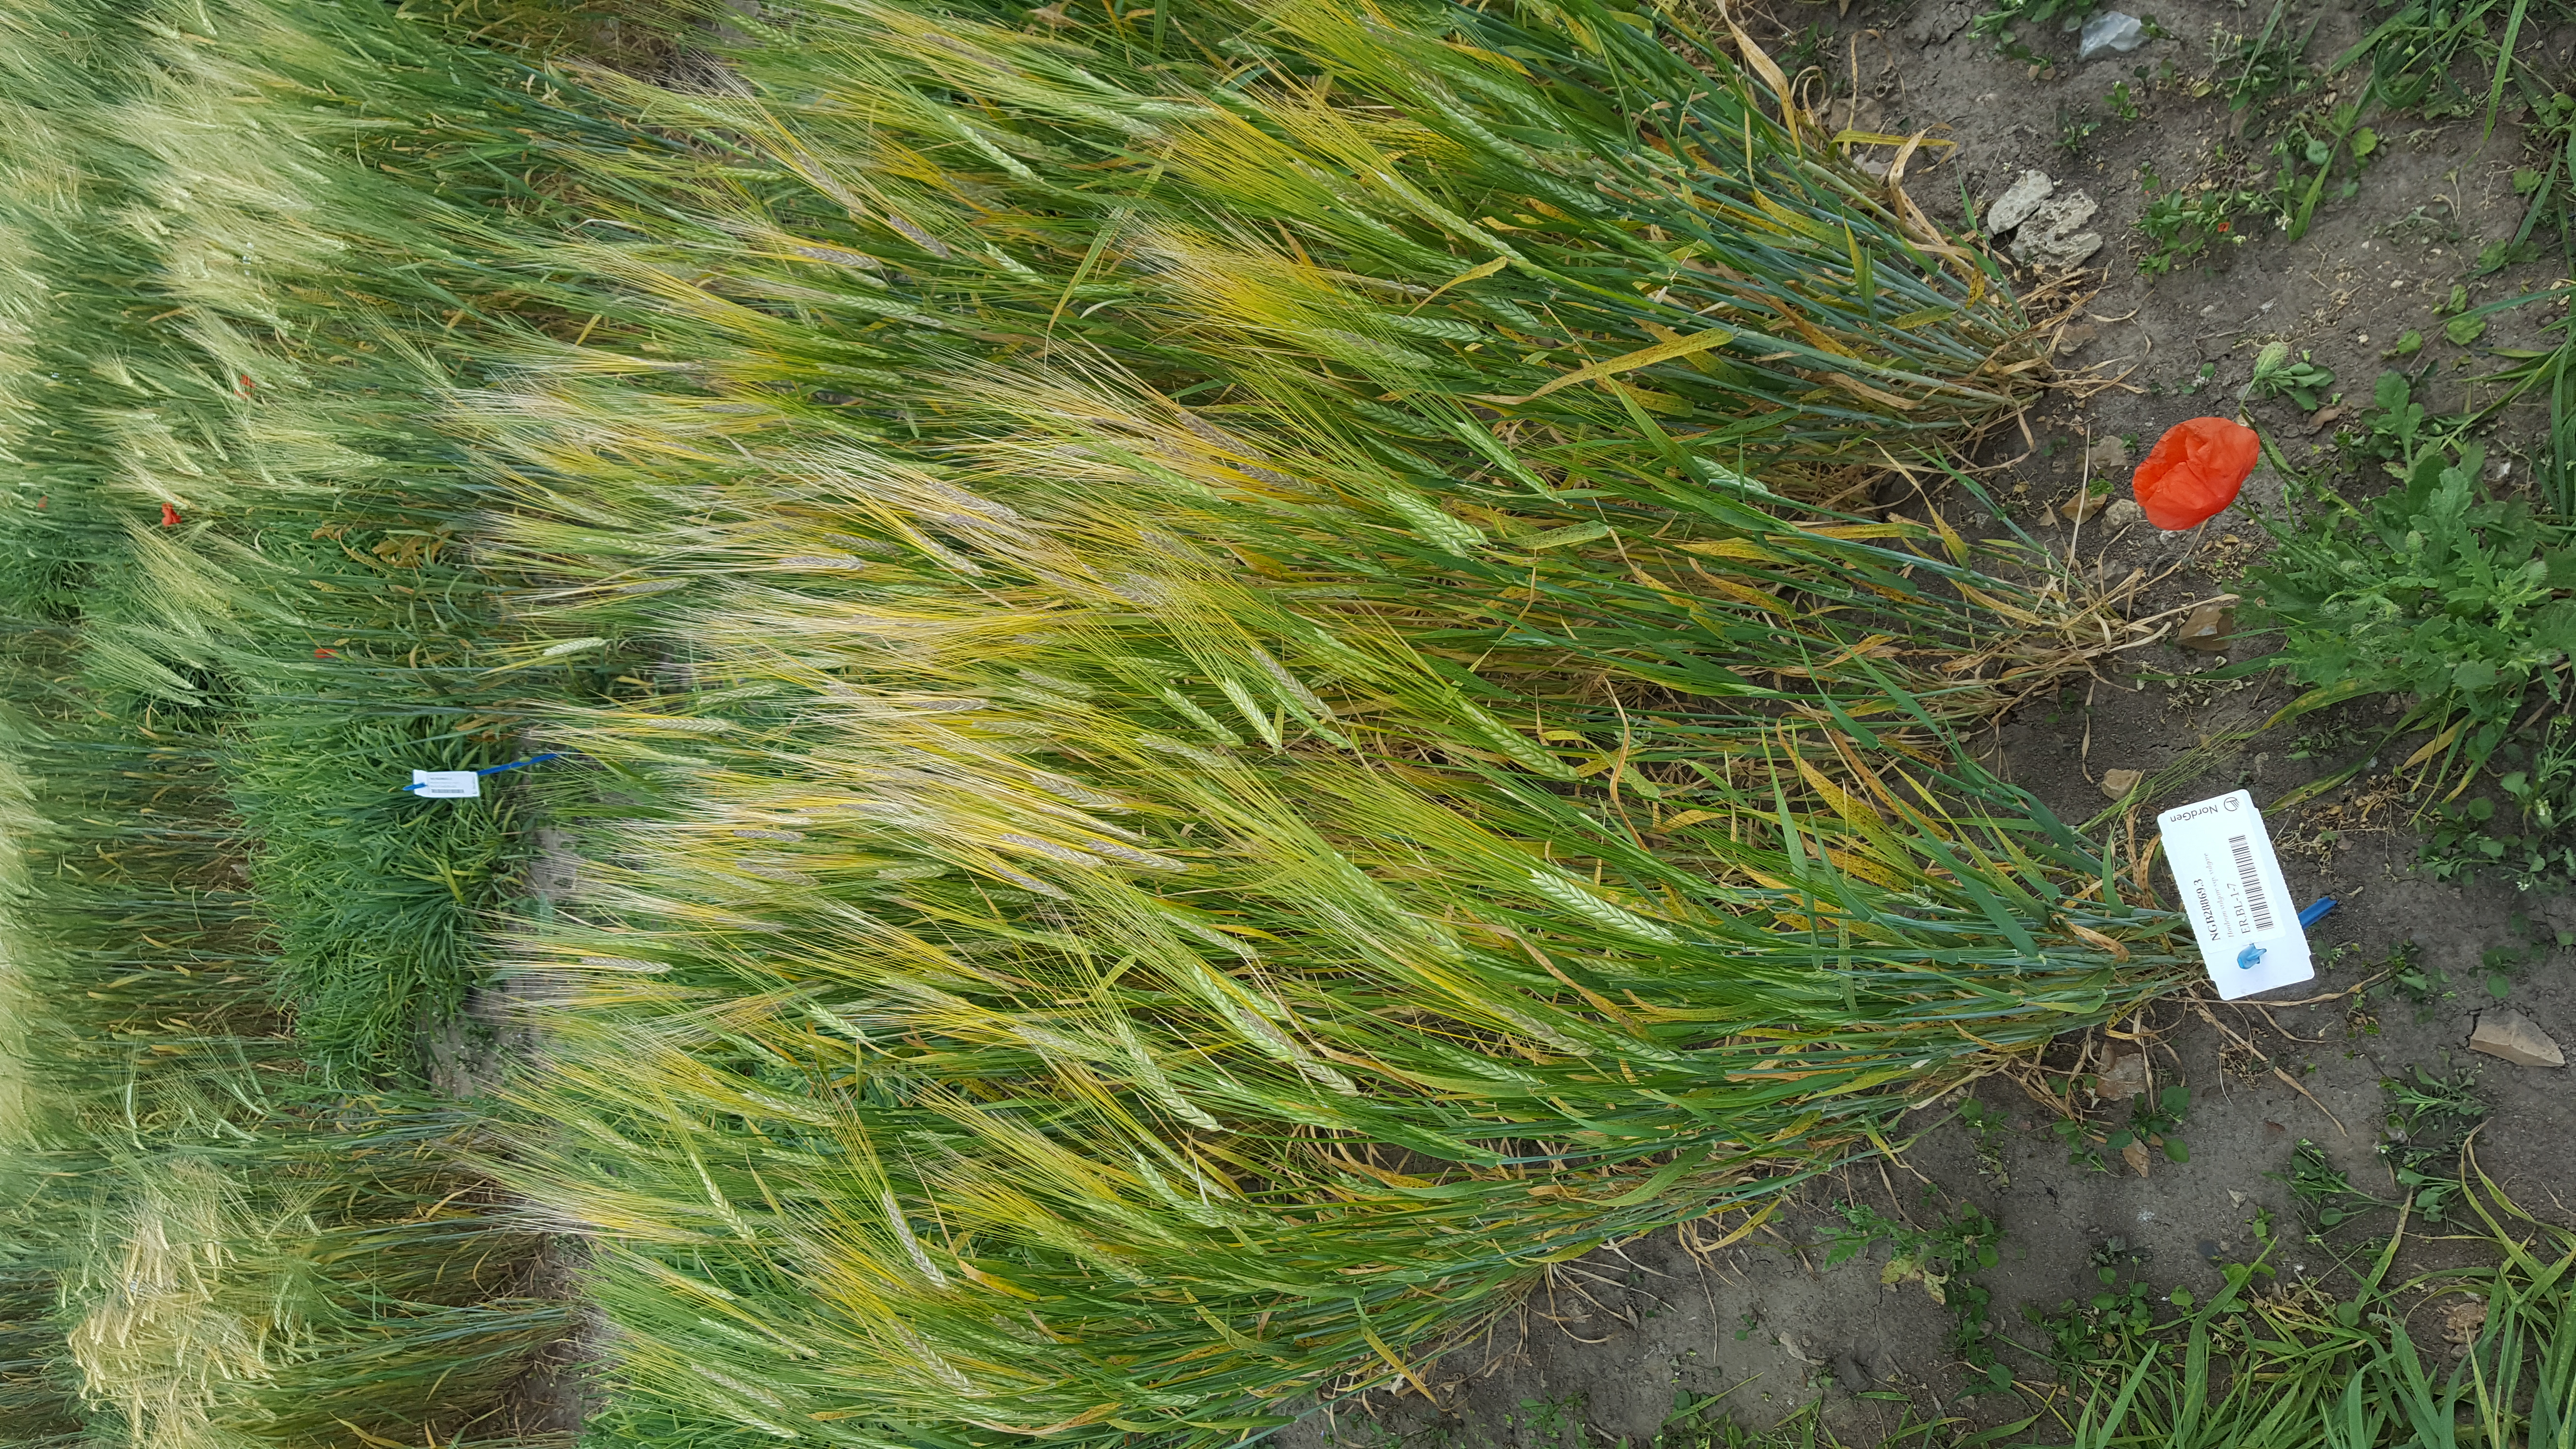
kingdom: Plantae
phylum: Tracheophyta
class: Liliopsida
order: Poales
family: Poaceae
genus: Hordeum
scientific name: Hordeum vulgare
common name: Common barley
